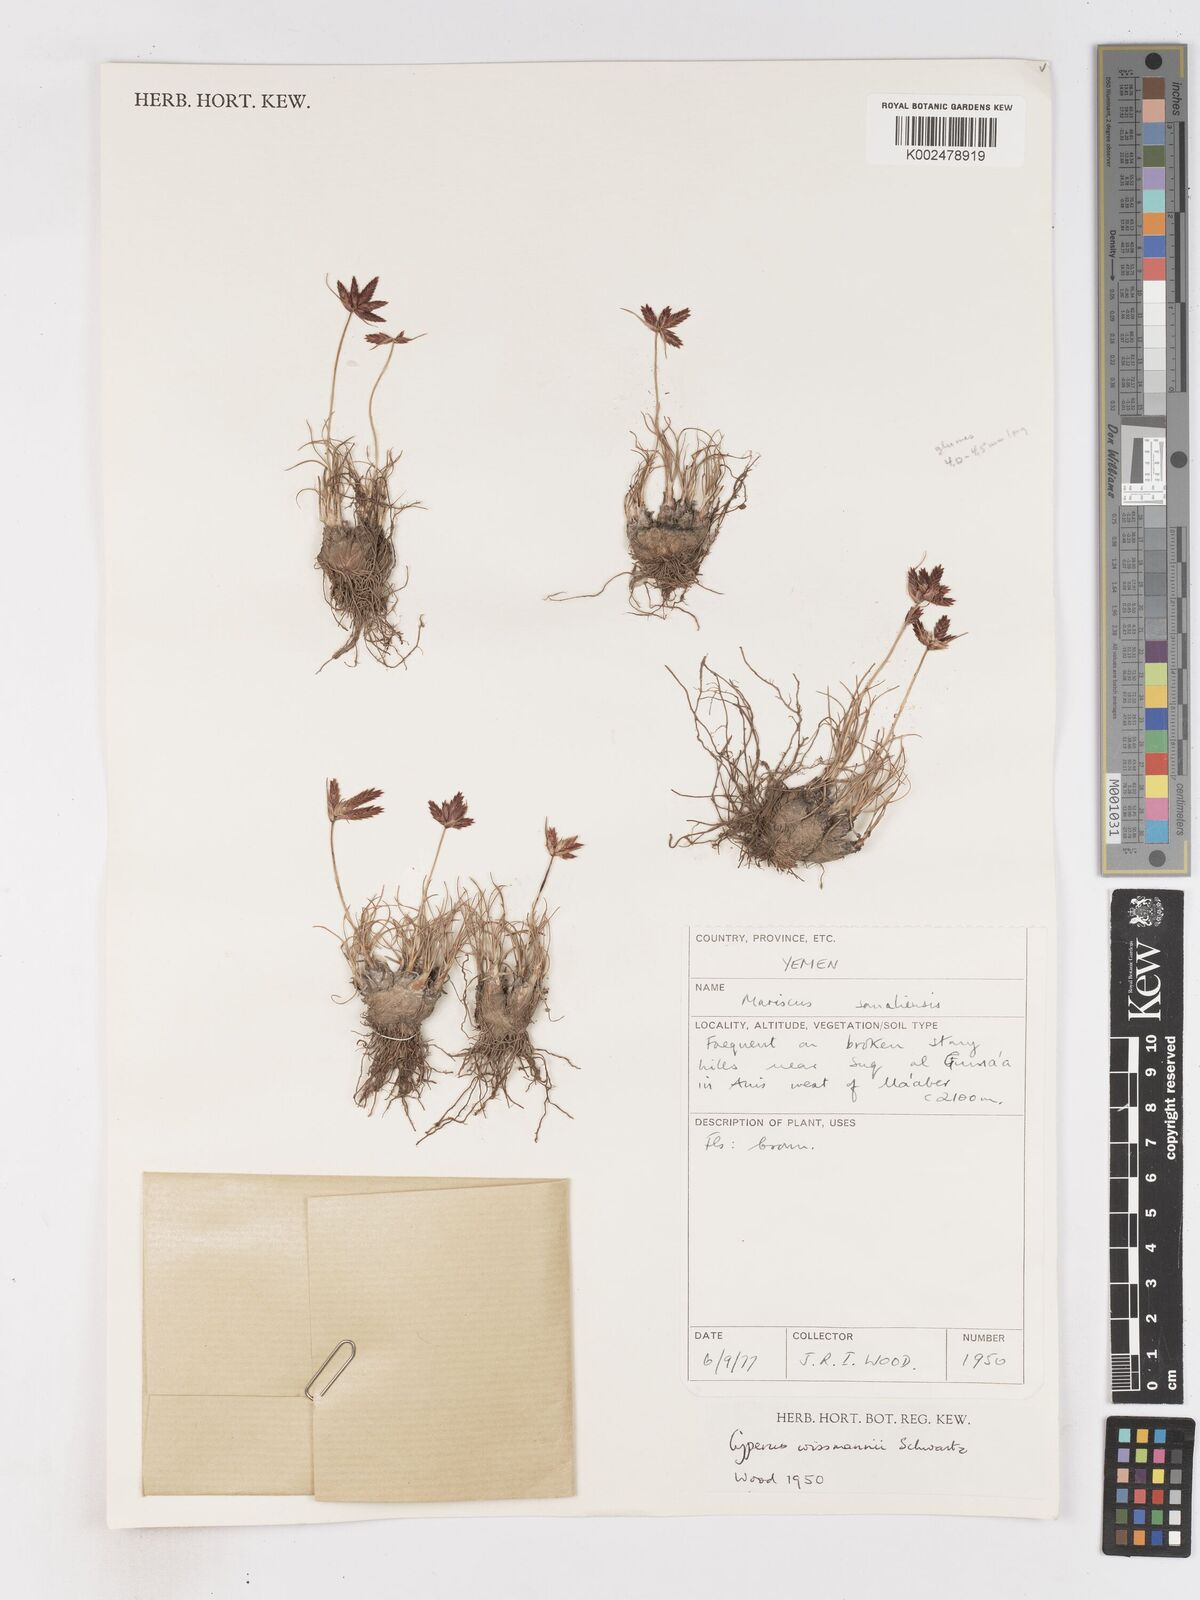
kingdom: Plantae
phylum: Tracheophyta
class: Liliopsida
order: Poales
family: Cyperaceae
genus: Cyperus
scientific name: Cyperus wissmannii
